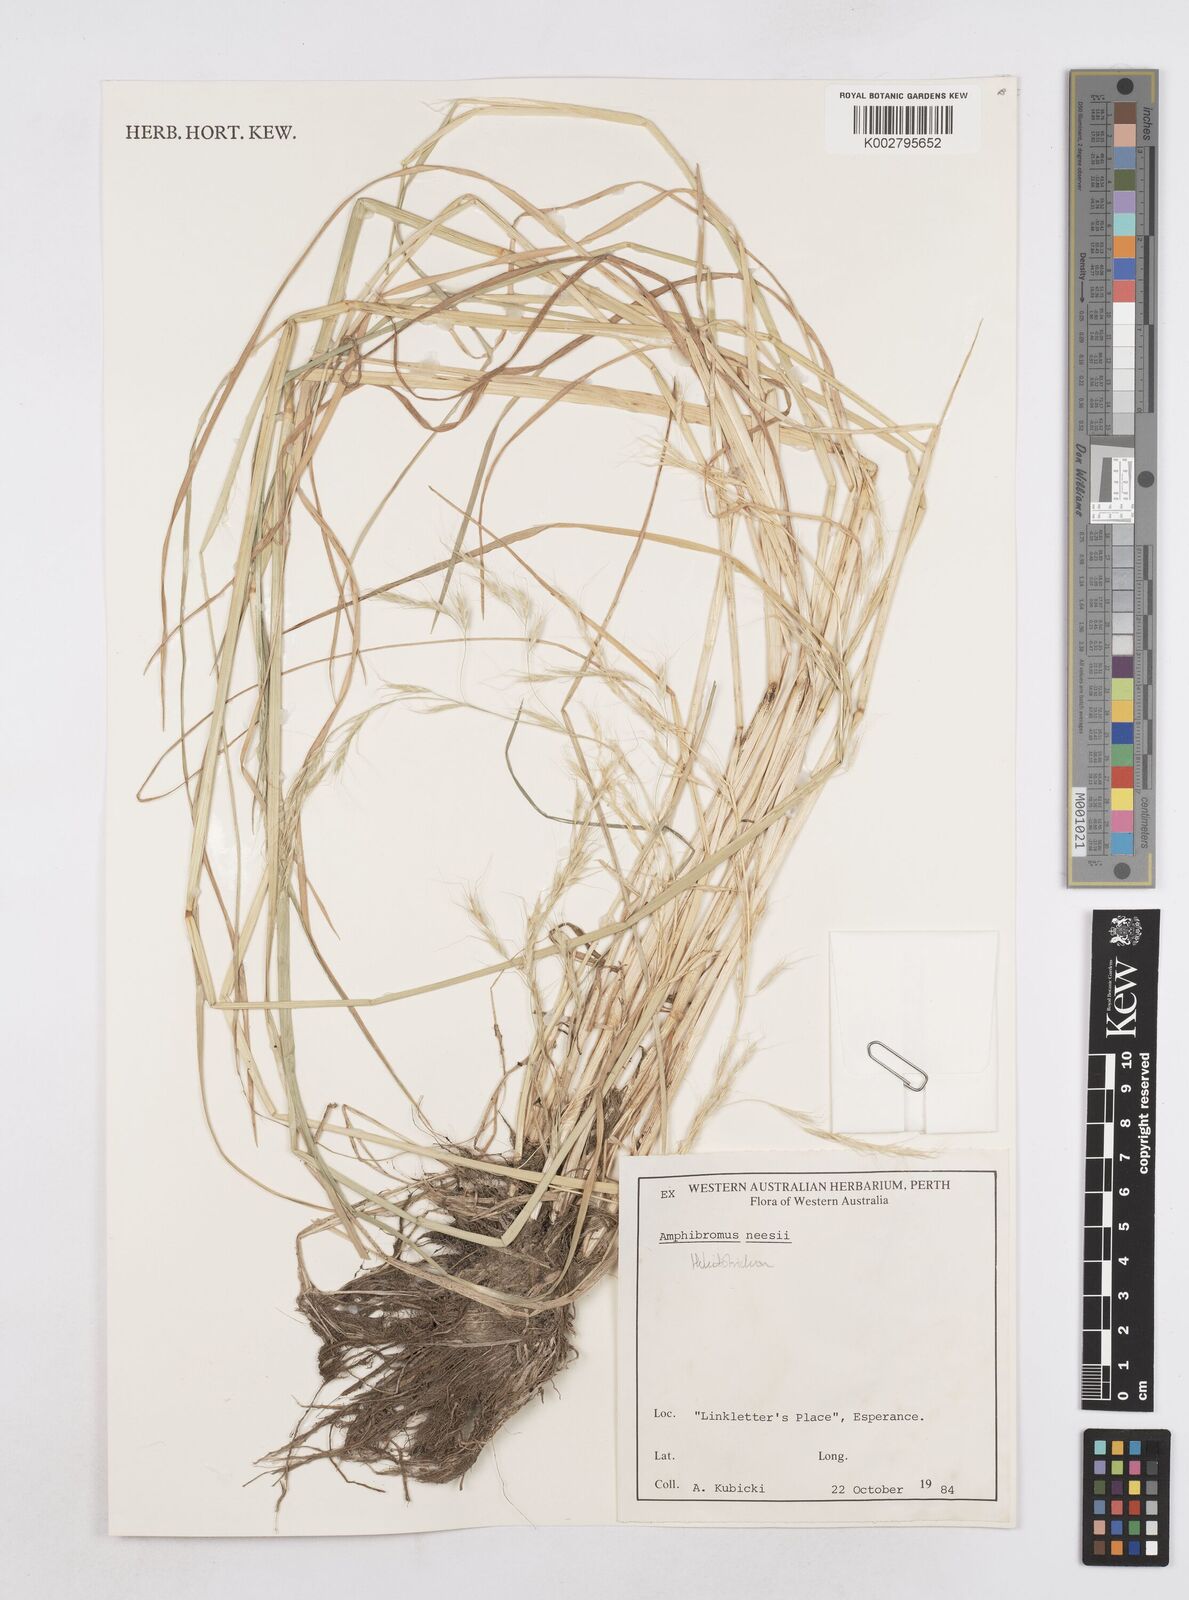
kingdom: Plantae
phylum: Tracheophyta
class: Liliopsida
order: Poales
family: Poaceae
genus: Amphibromus
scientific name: Amphibromus neesii
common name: Australian wallaby grass
